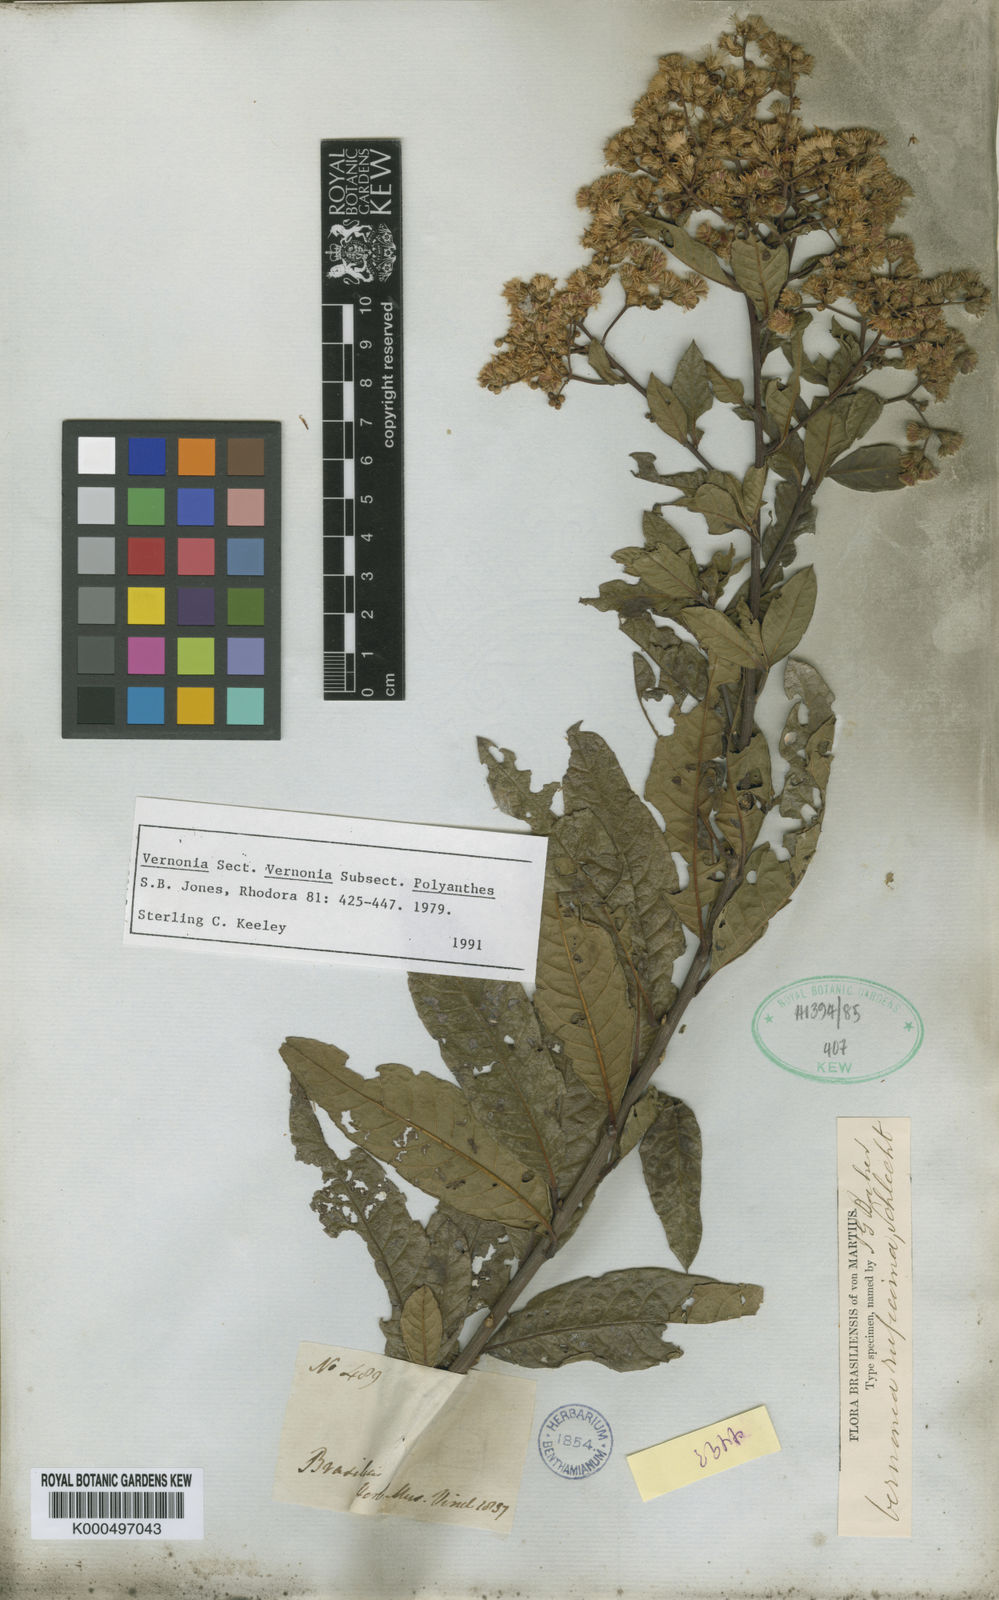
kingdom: Plantae
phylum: Tracheophyta
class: Magnoliopsida
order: Asterales
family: Asteraceae
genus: Vernonia
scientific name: Vernonia
